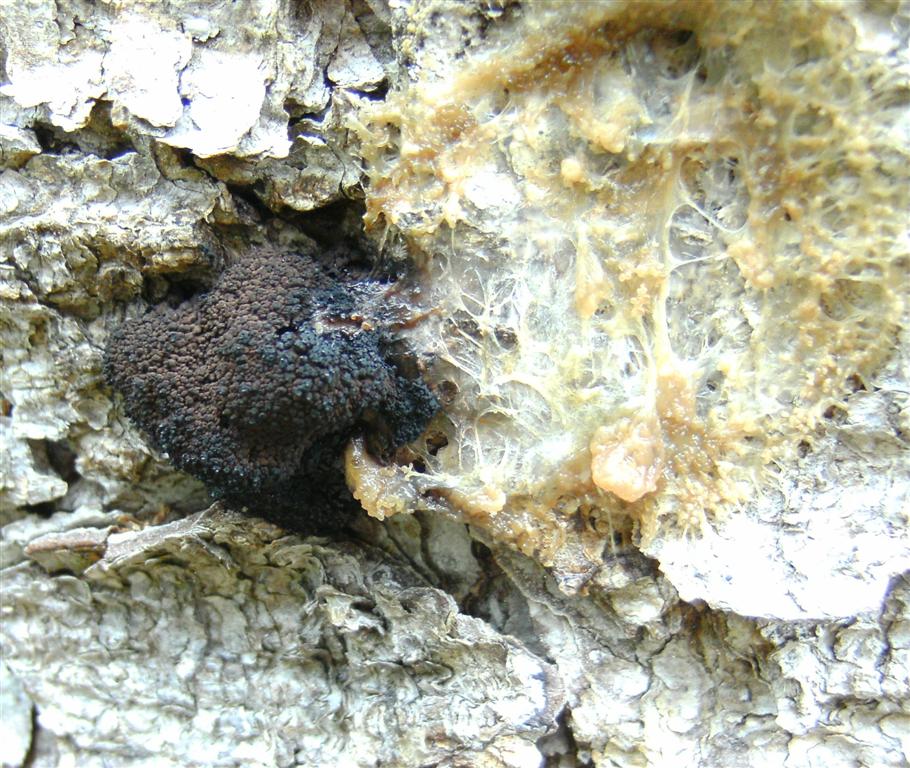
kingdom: Protozoa
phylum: Mycetozoa
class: Myxomycetes
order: Stemonitidales
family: Stemonitidaceae
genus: Symphytocarpus
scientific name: Symphytocarpus amaurochaetoides
